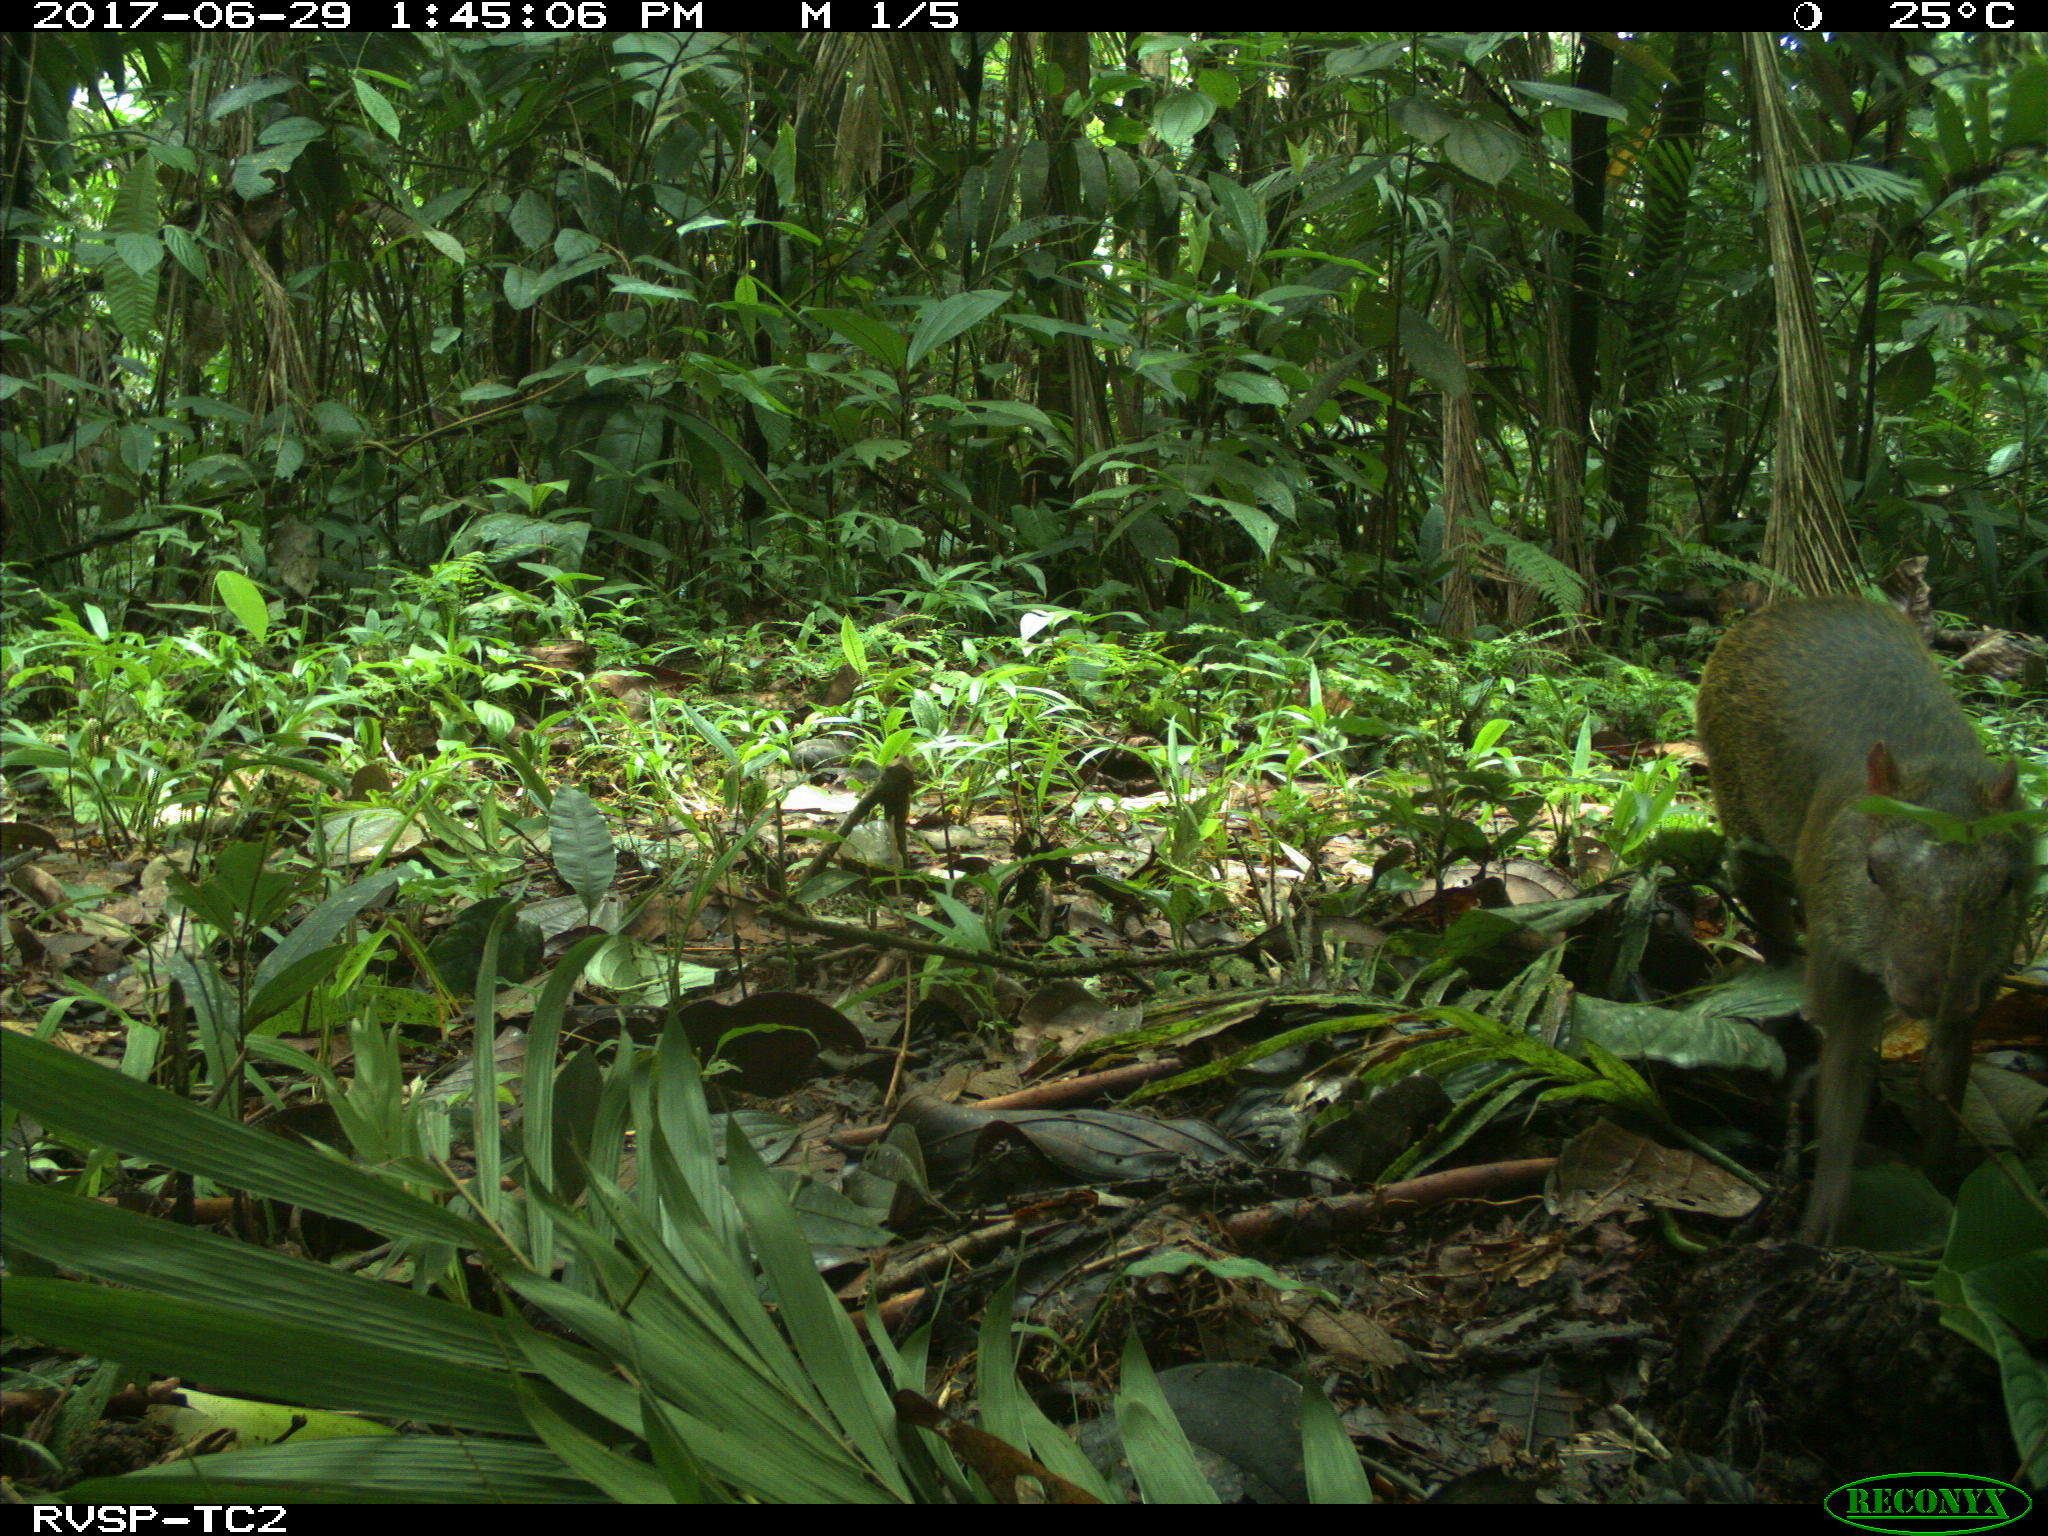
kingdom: Animalia
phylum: Chordata
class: Mammalia
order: Rodentia
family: Dasyproctidae
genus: Dasyprocta
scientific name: Dasyprocta punctata
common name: Central american agouti
